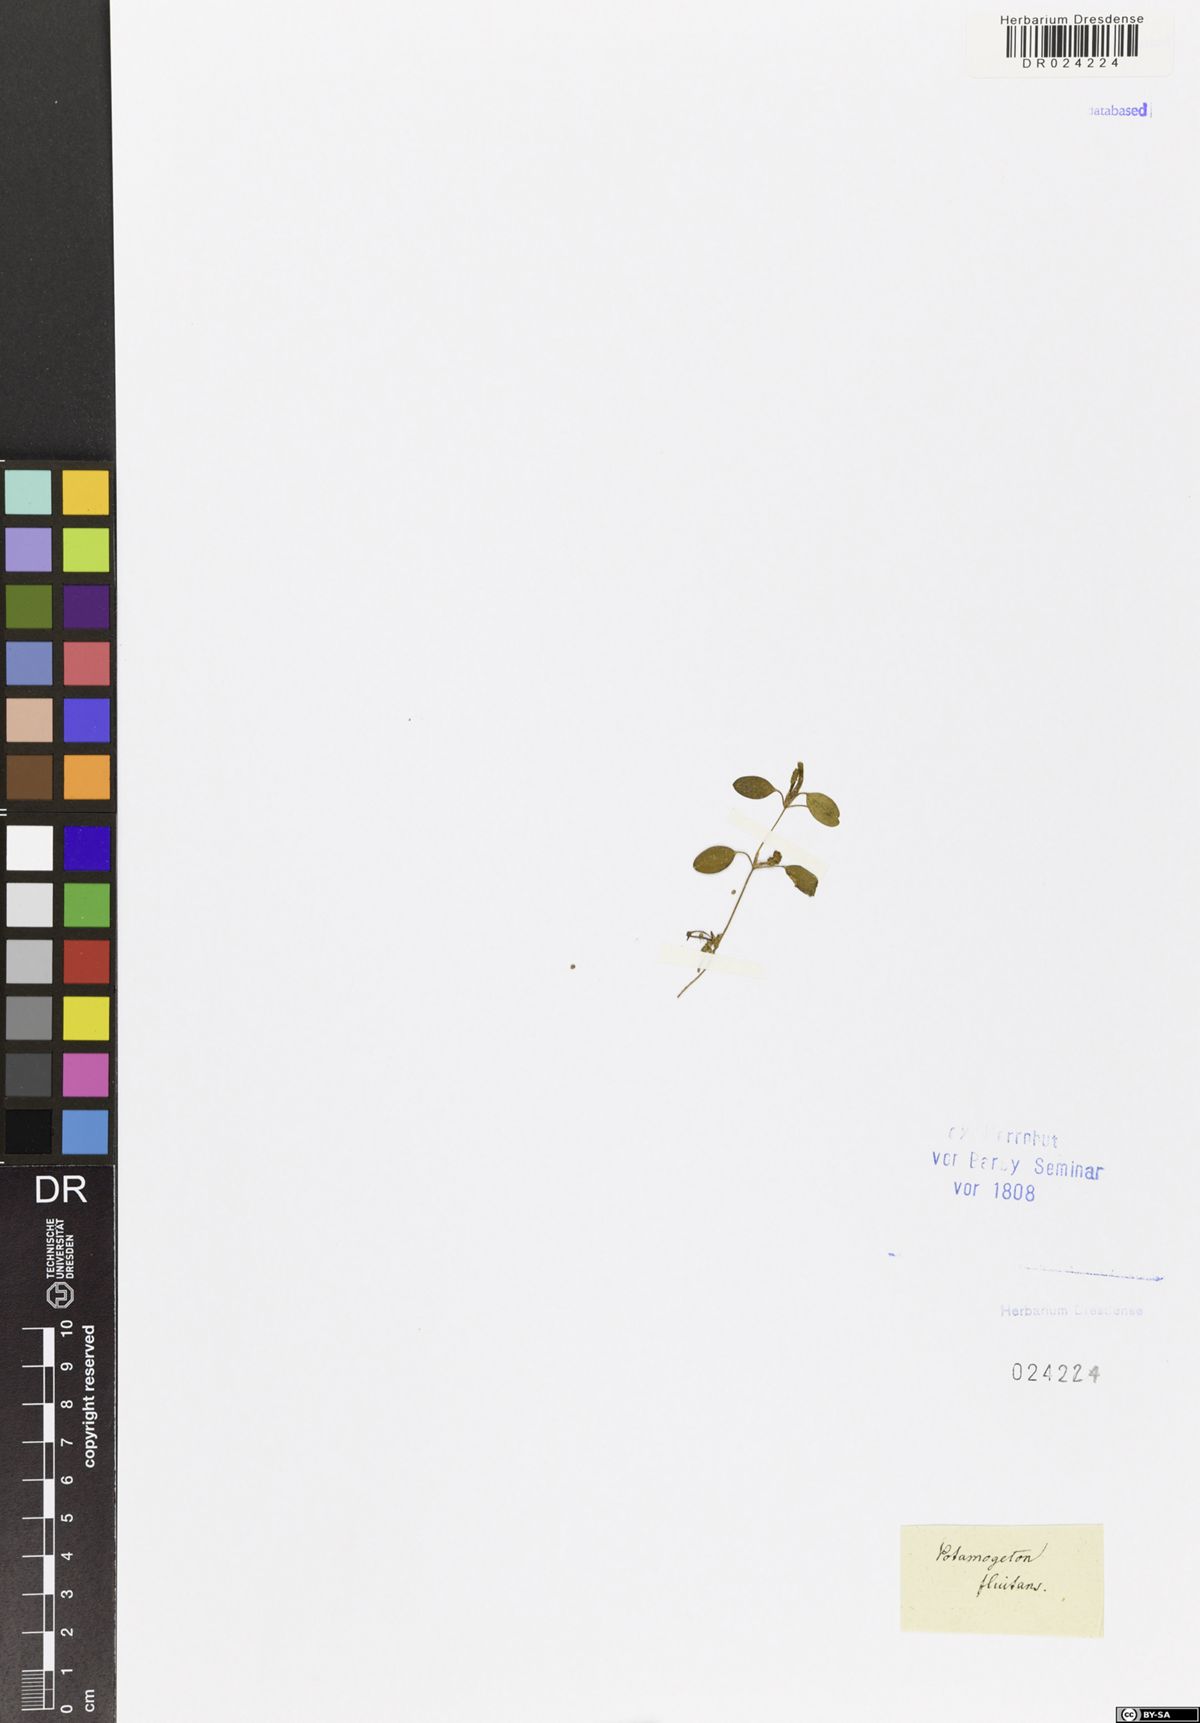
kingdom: Plantae
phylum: Tracheophyta
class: Liliopsida
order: Alismatales
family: Potamogetonaceae
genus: Potamogeton
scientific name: Potamogeton fluitans
